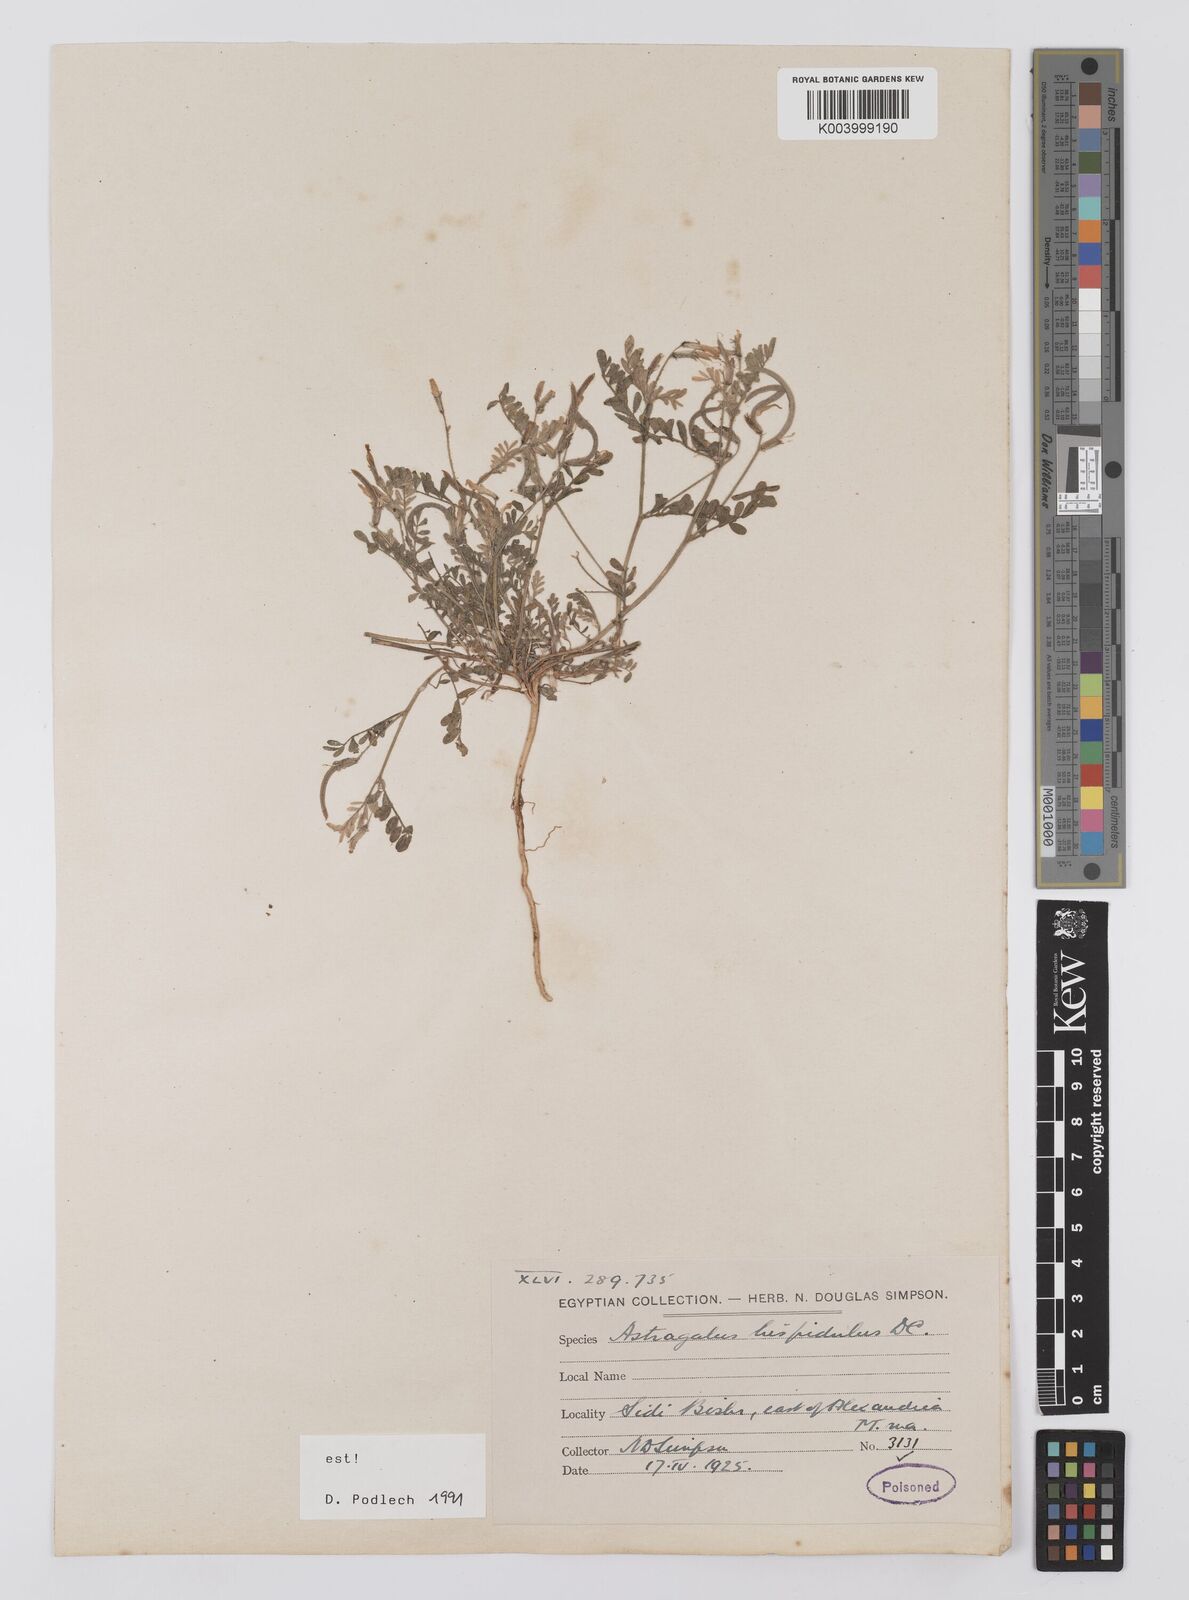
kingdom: Plantae
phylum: Tracheophyta
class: Magnoliopsida
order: Fabales
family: Fabaceae
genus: Astragalus
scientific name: Astragalus hispidulus
